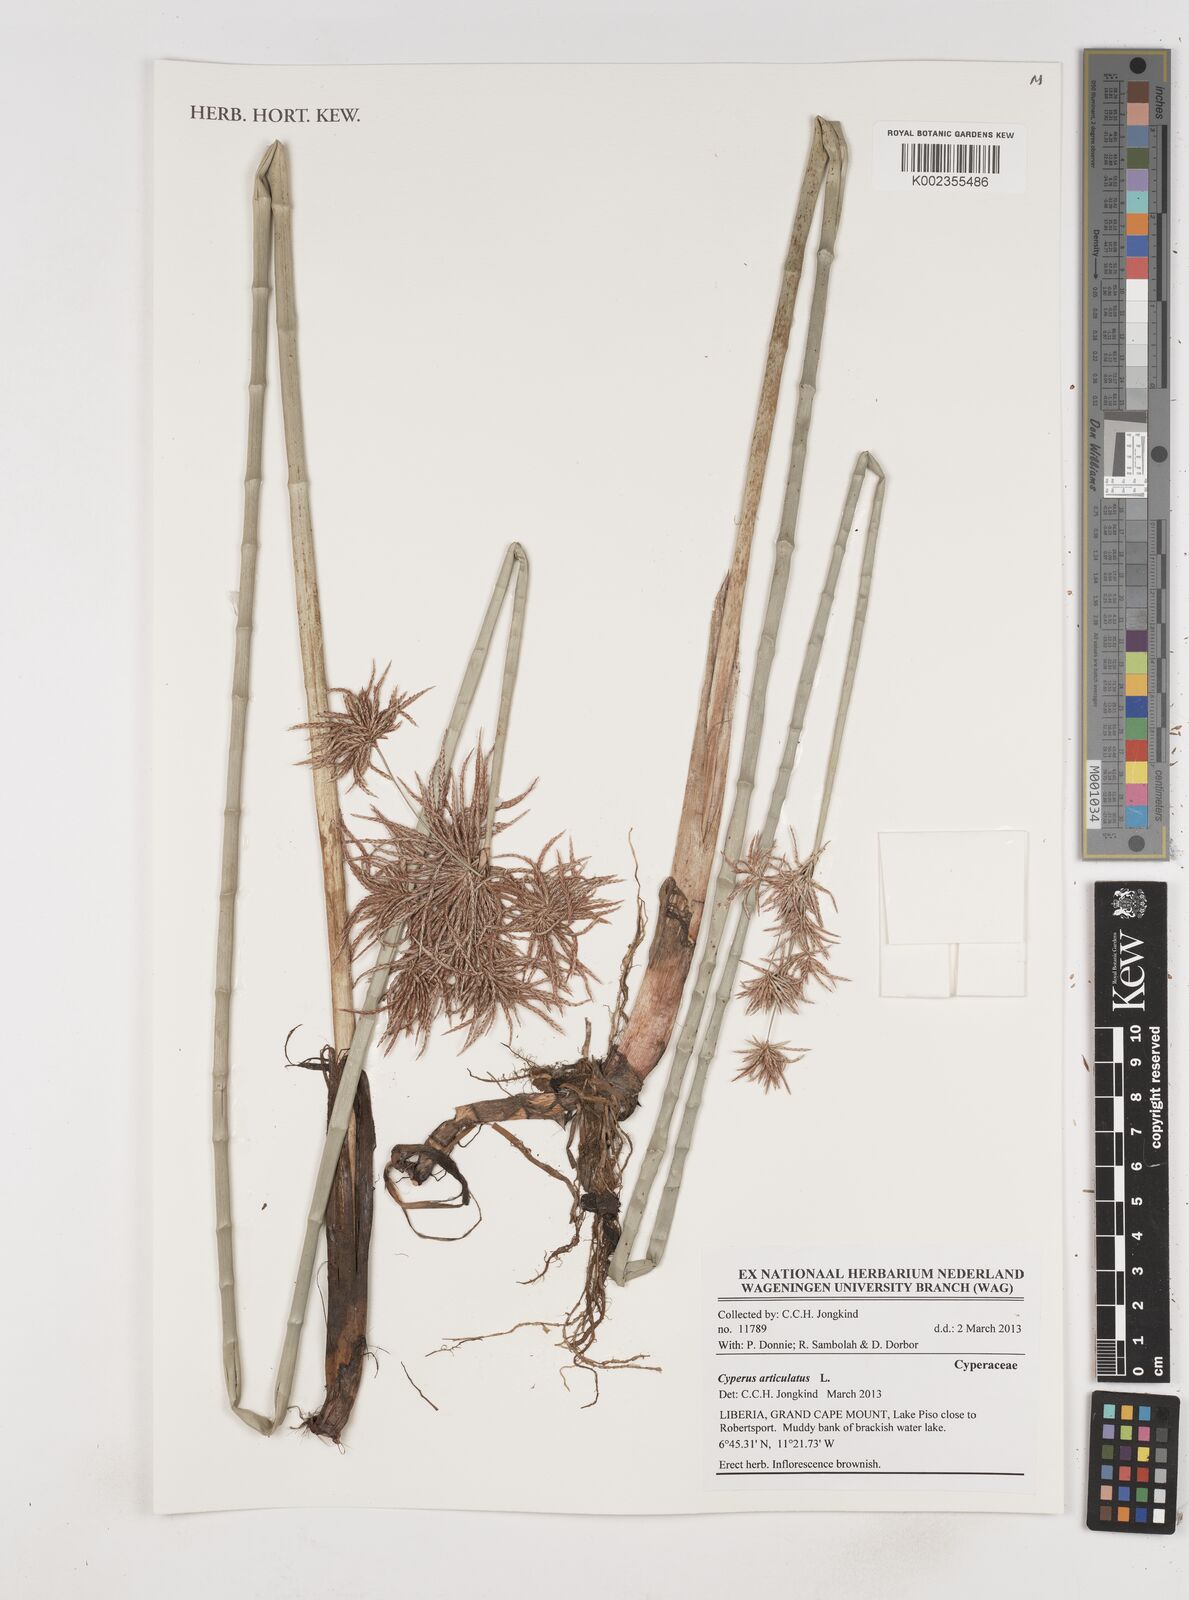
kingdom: Plantae
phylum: Tracheophyta
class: Liliopsida
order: Poales
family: Cyperaceae
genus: Cyperus
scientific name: Cyperus articulatus
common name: Jointed flatsedge
